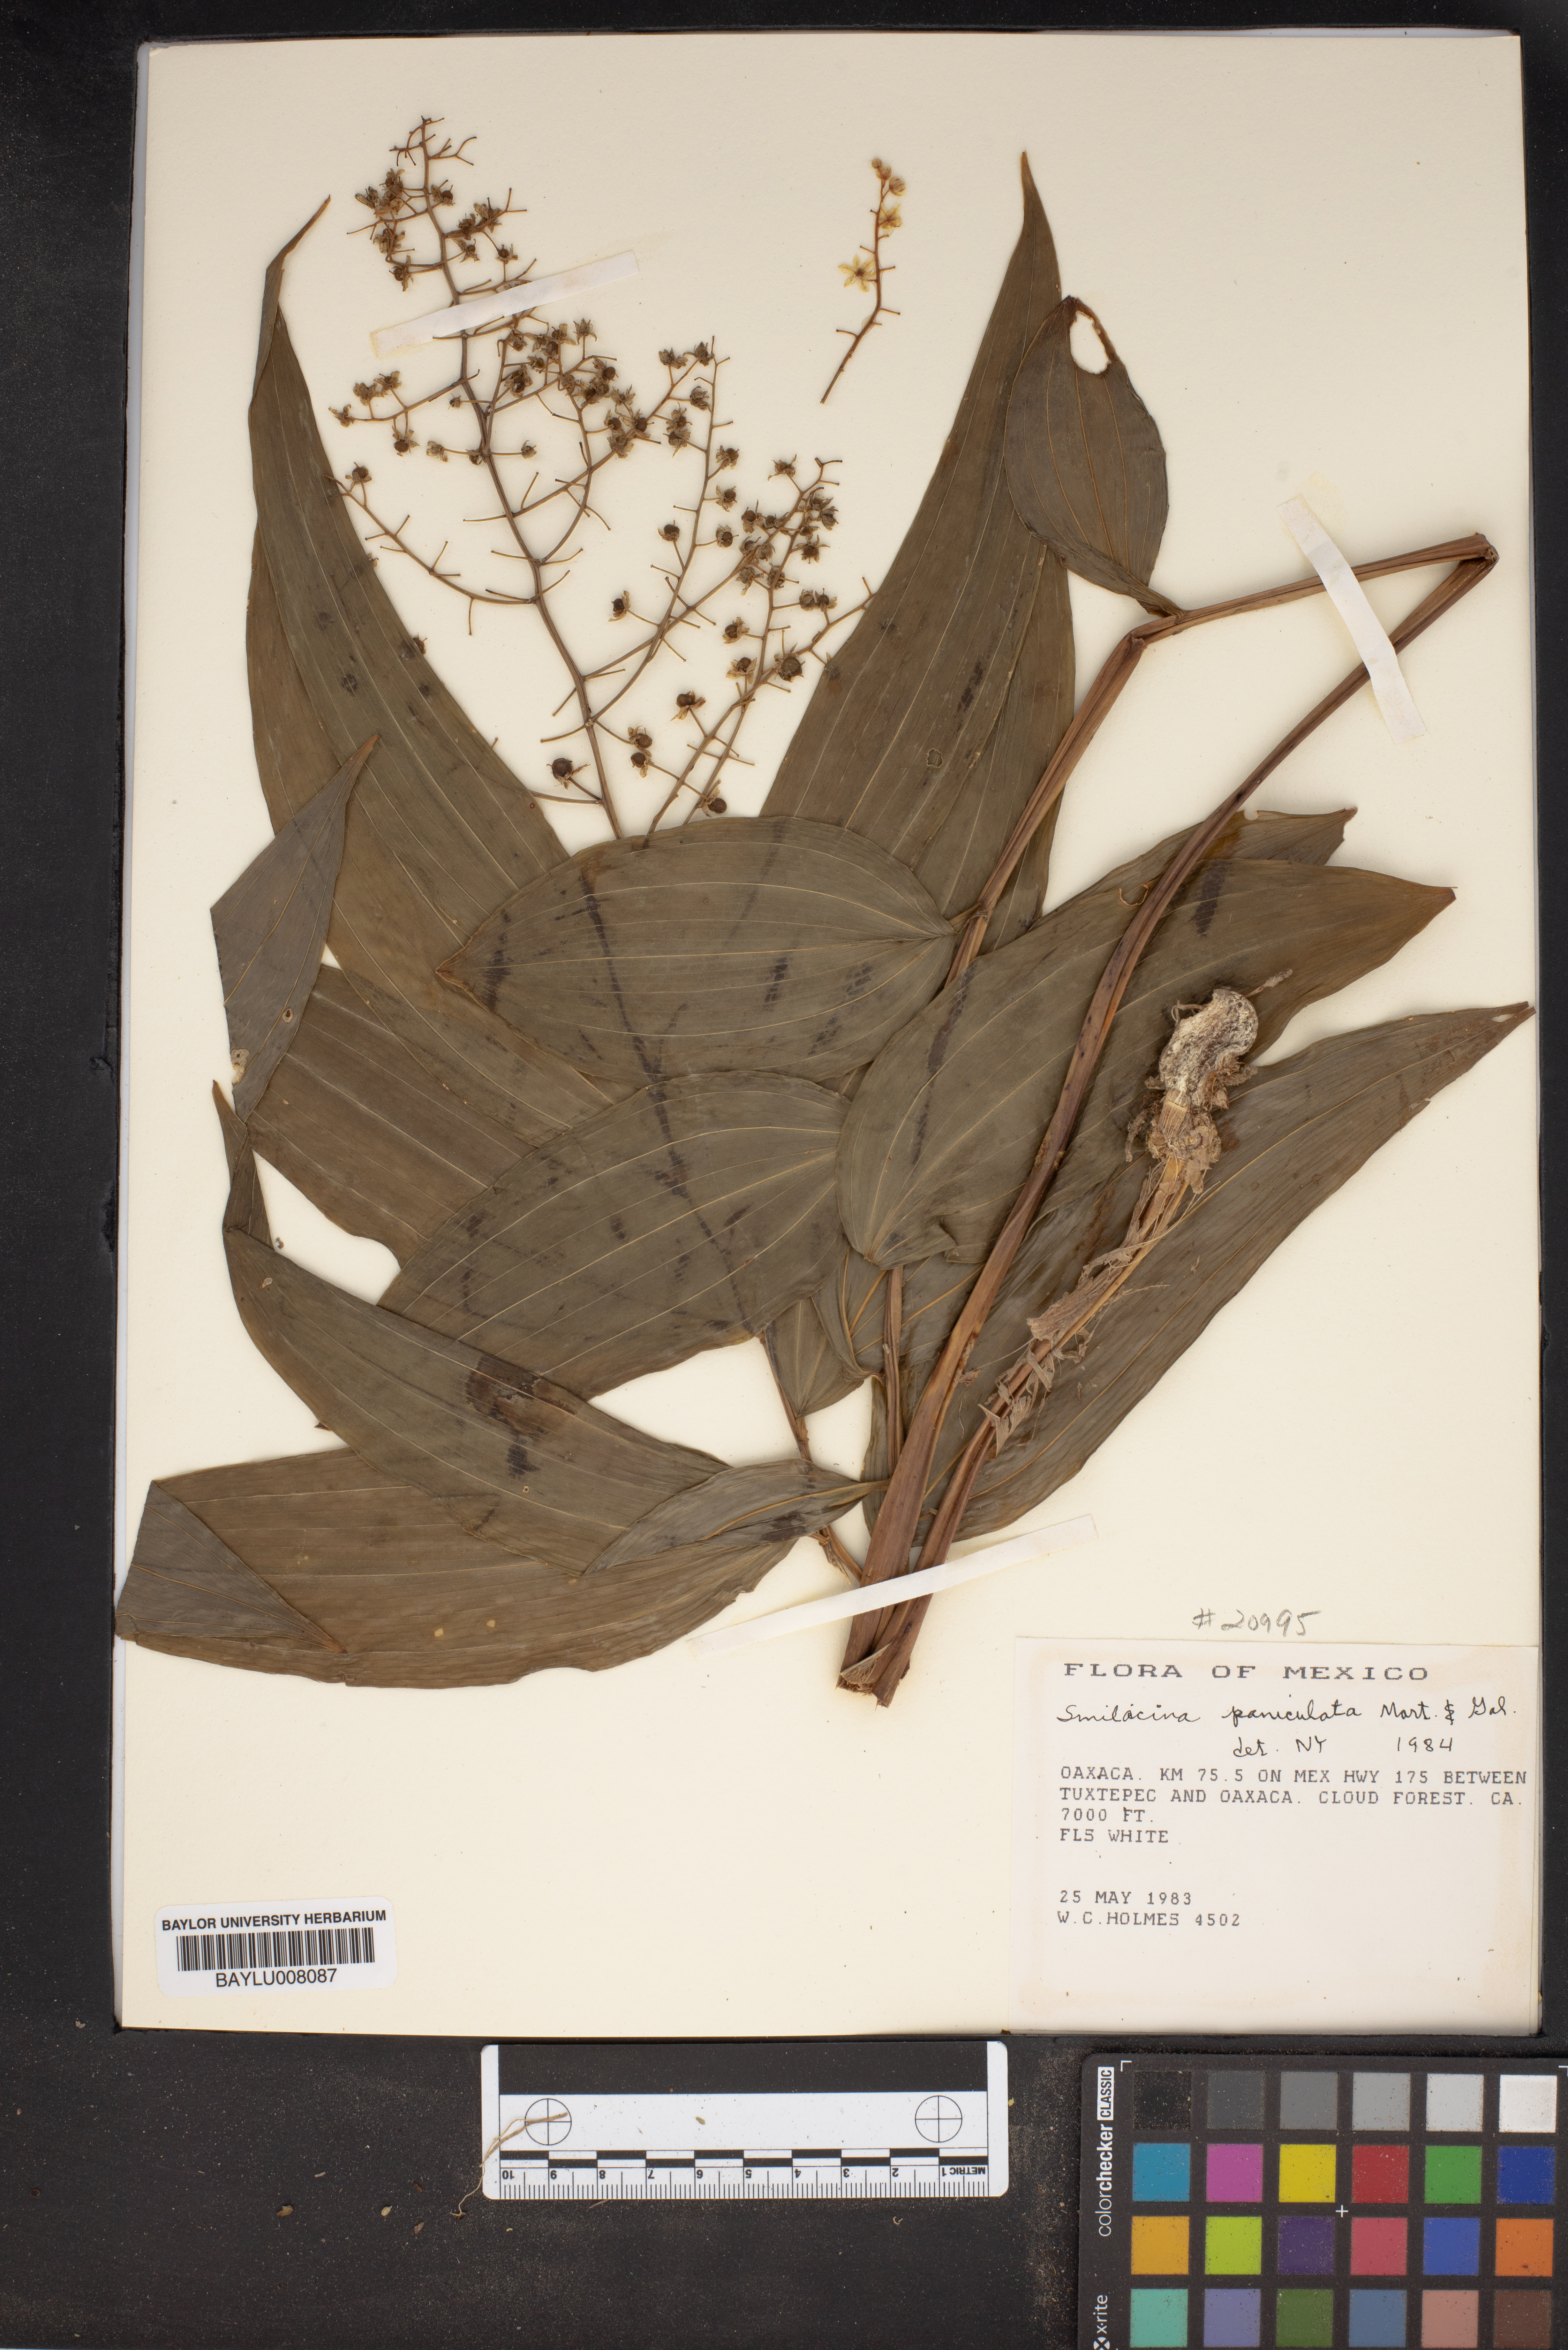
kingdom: Plantae
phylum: Tracheophyta
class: Liliopsida
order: Asparagales
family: Asparagaceae
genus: Maianthemum
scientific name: Maianthemum tatsienense
